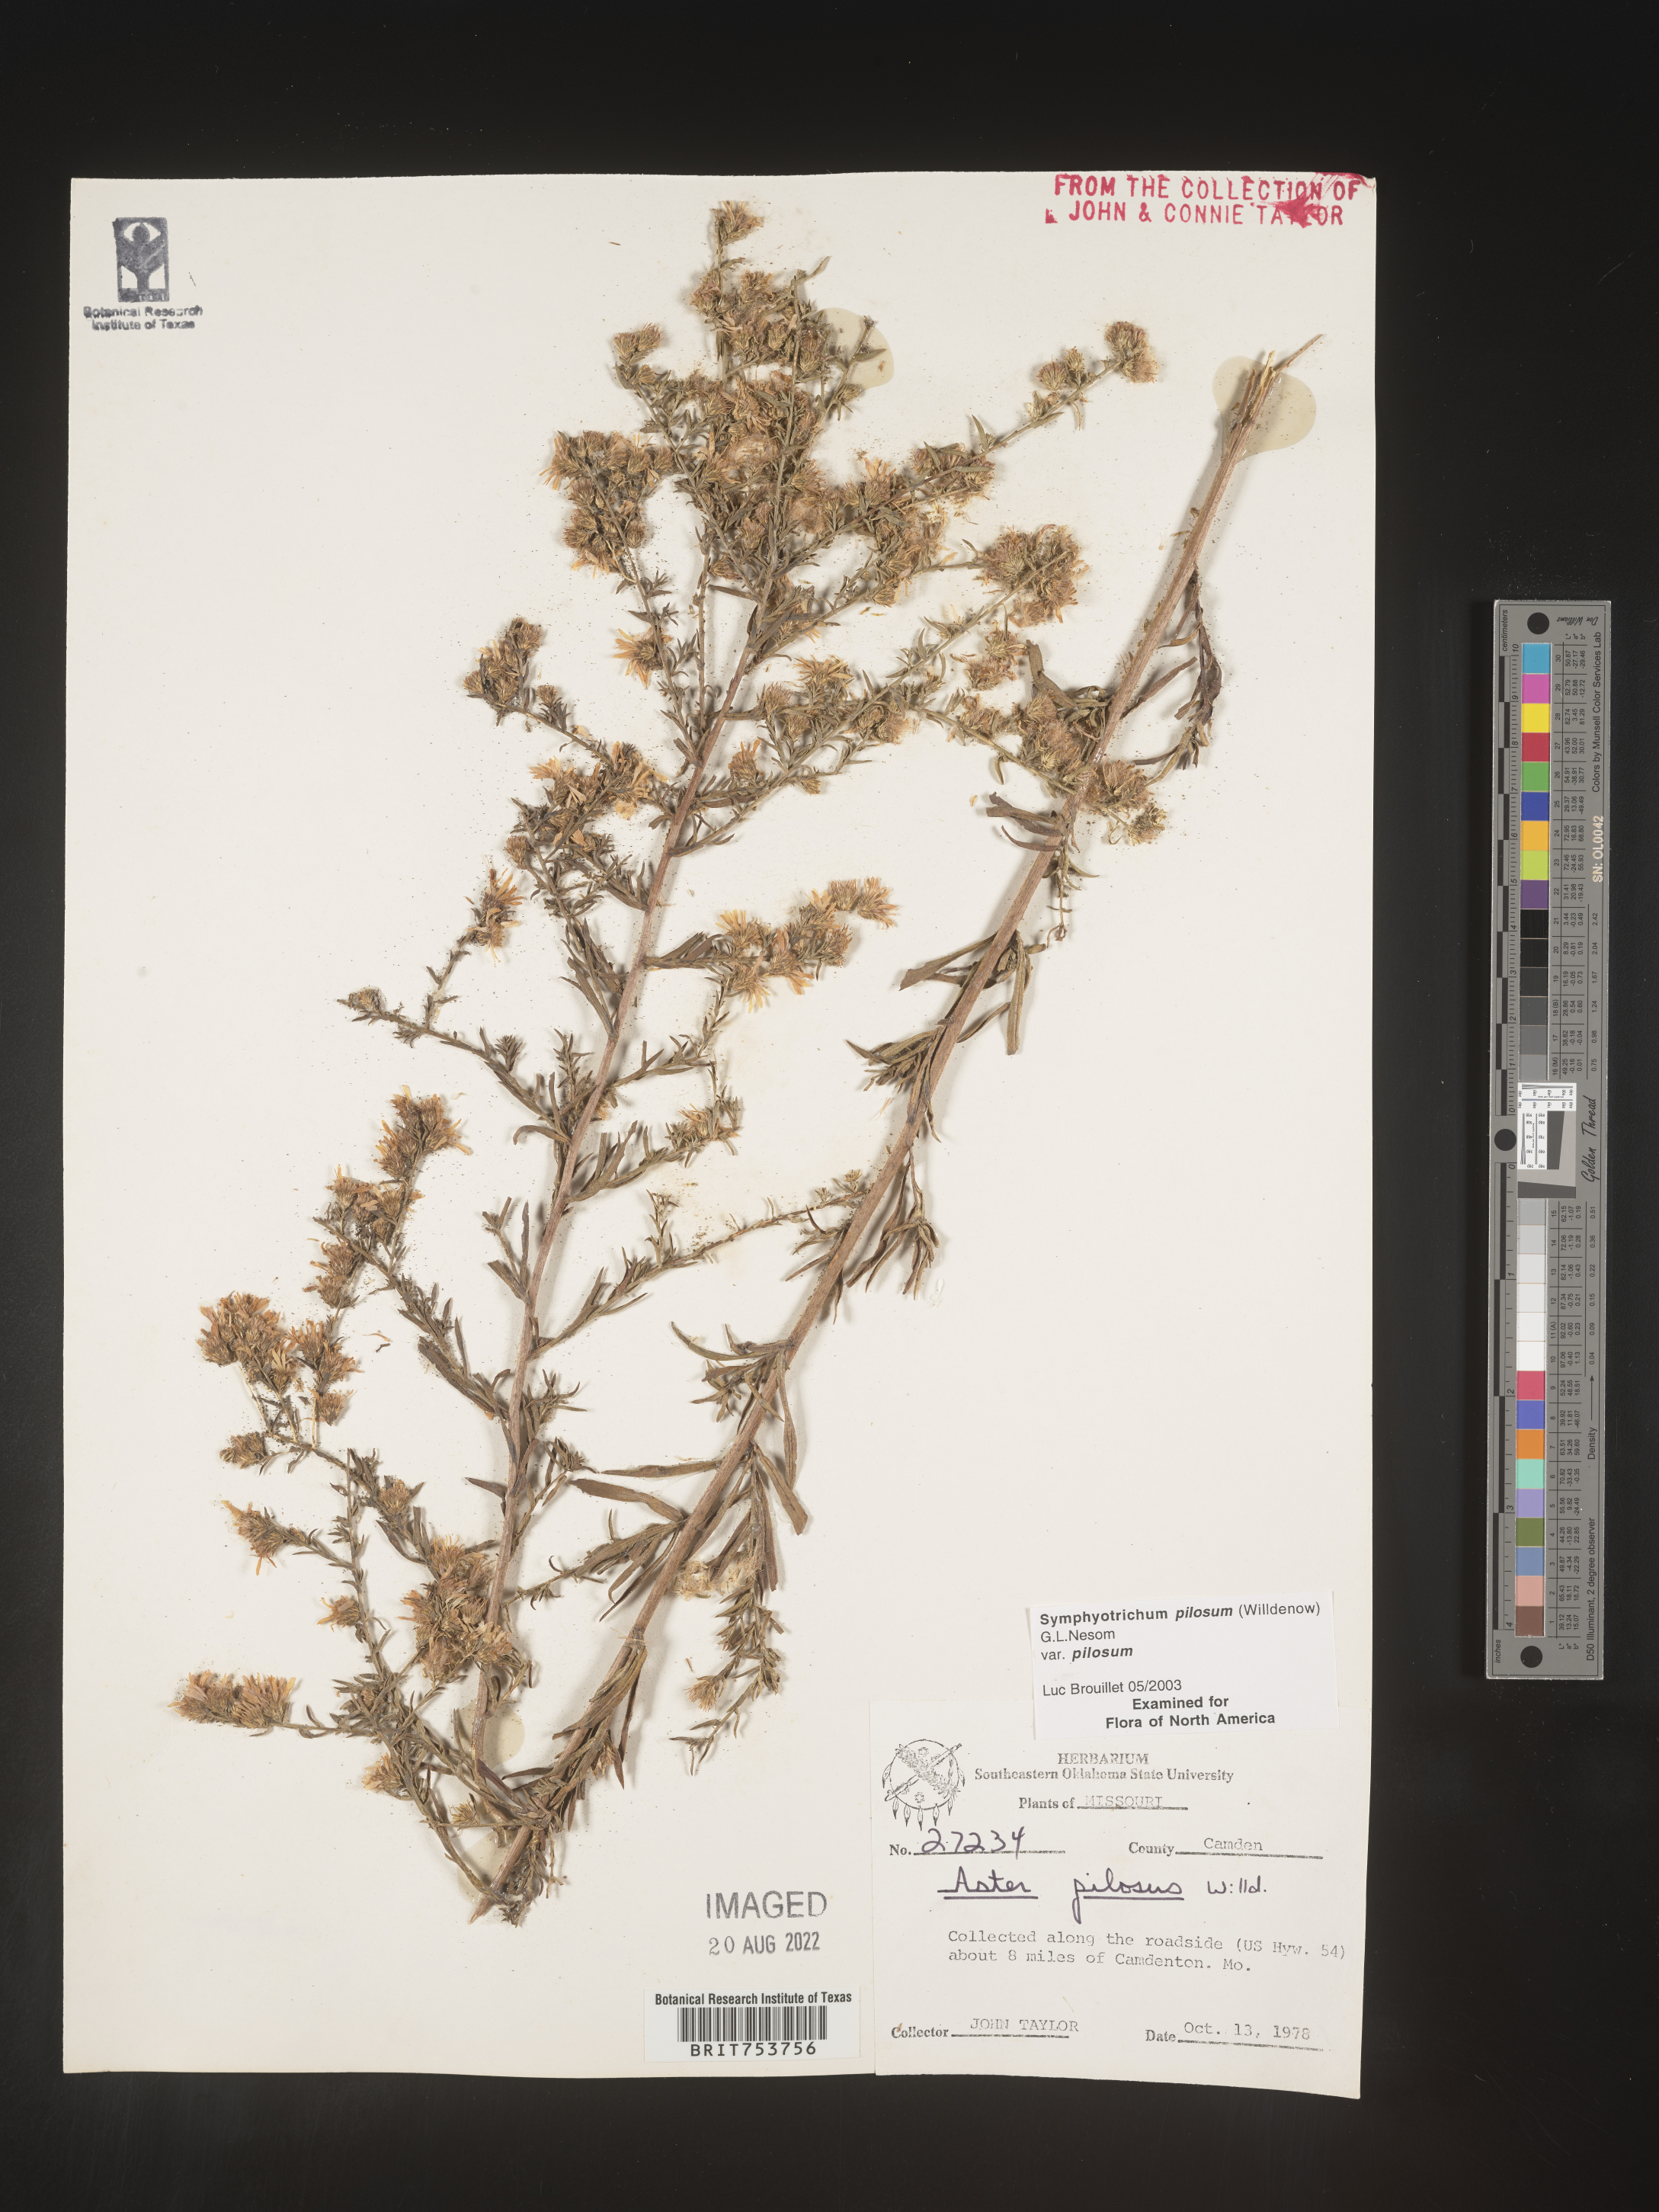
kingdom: Plantae
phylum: Tracheophyta
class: Magnoliopsida
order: Asterales
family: Asteraceae
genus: Symphyotrichum
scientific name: Symphyotrichum pilosum
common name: Awl aster
